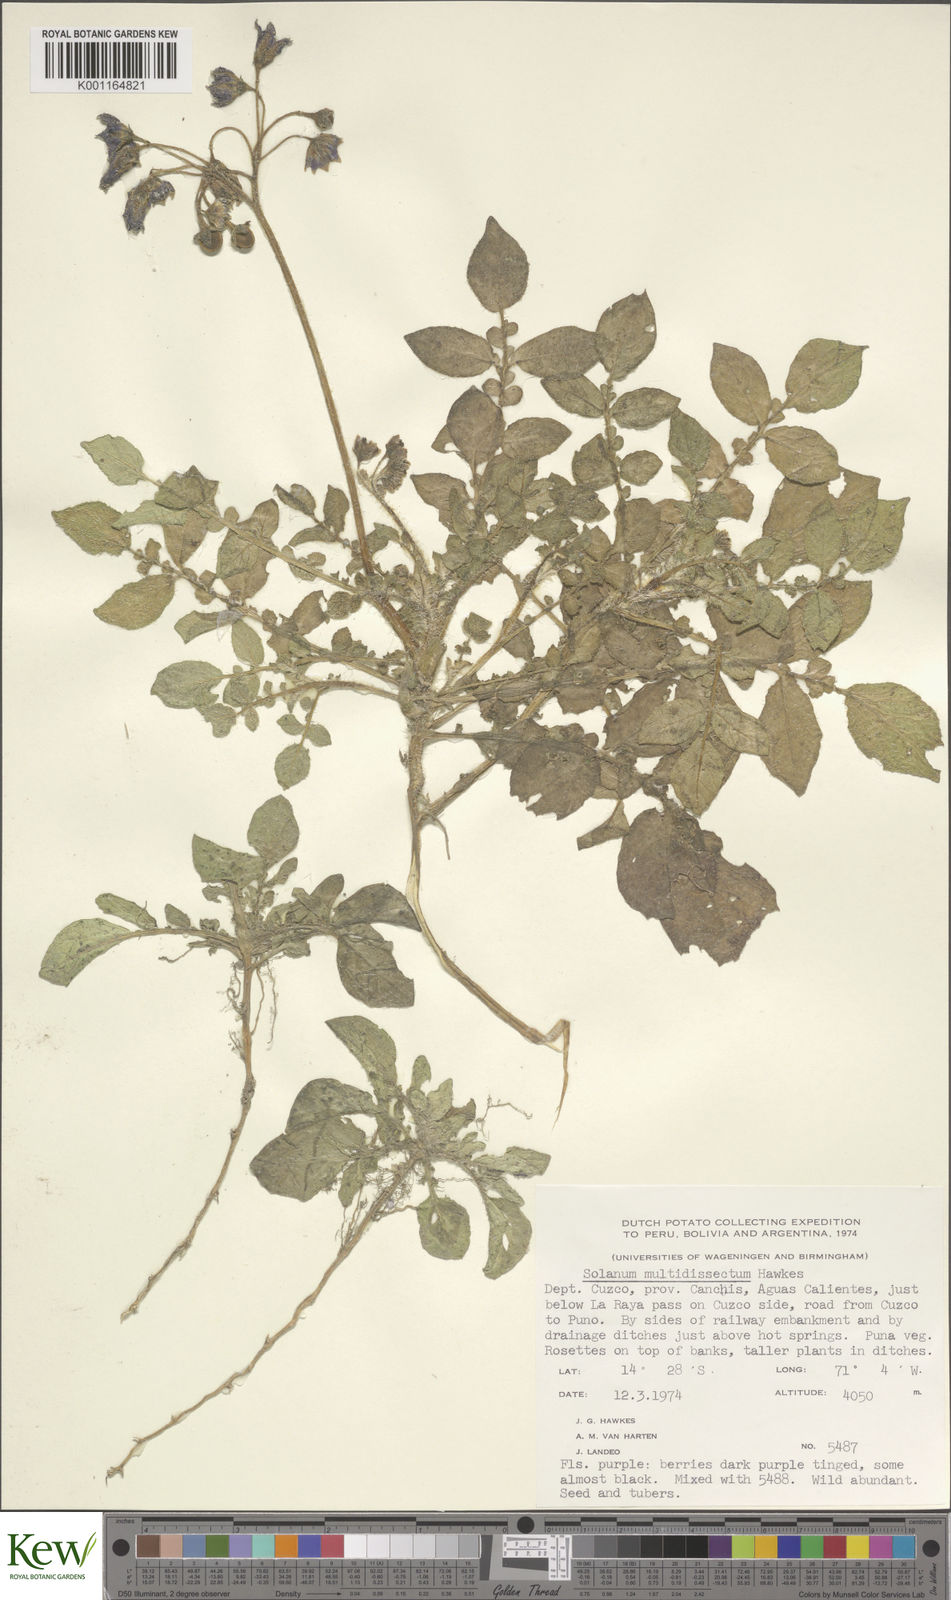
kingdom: Plantae
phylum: Tracheophyta
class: Magnoliopsida
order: Solanales
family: Solanaceae
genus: Solanum
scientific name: Solanum candolleanum
